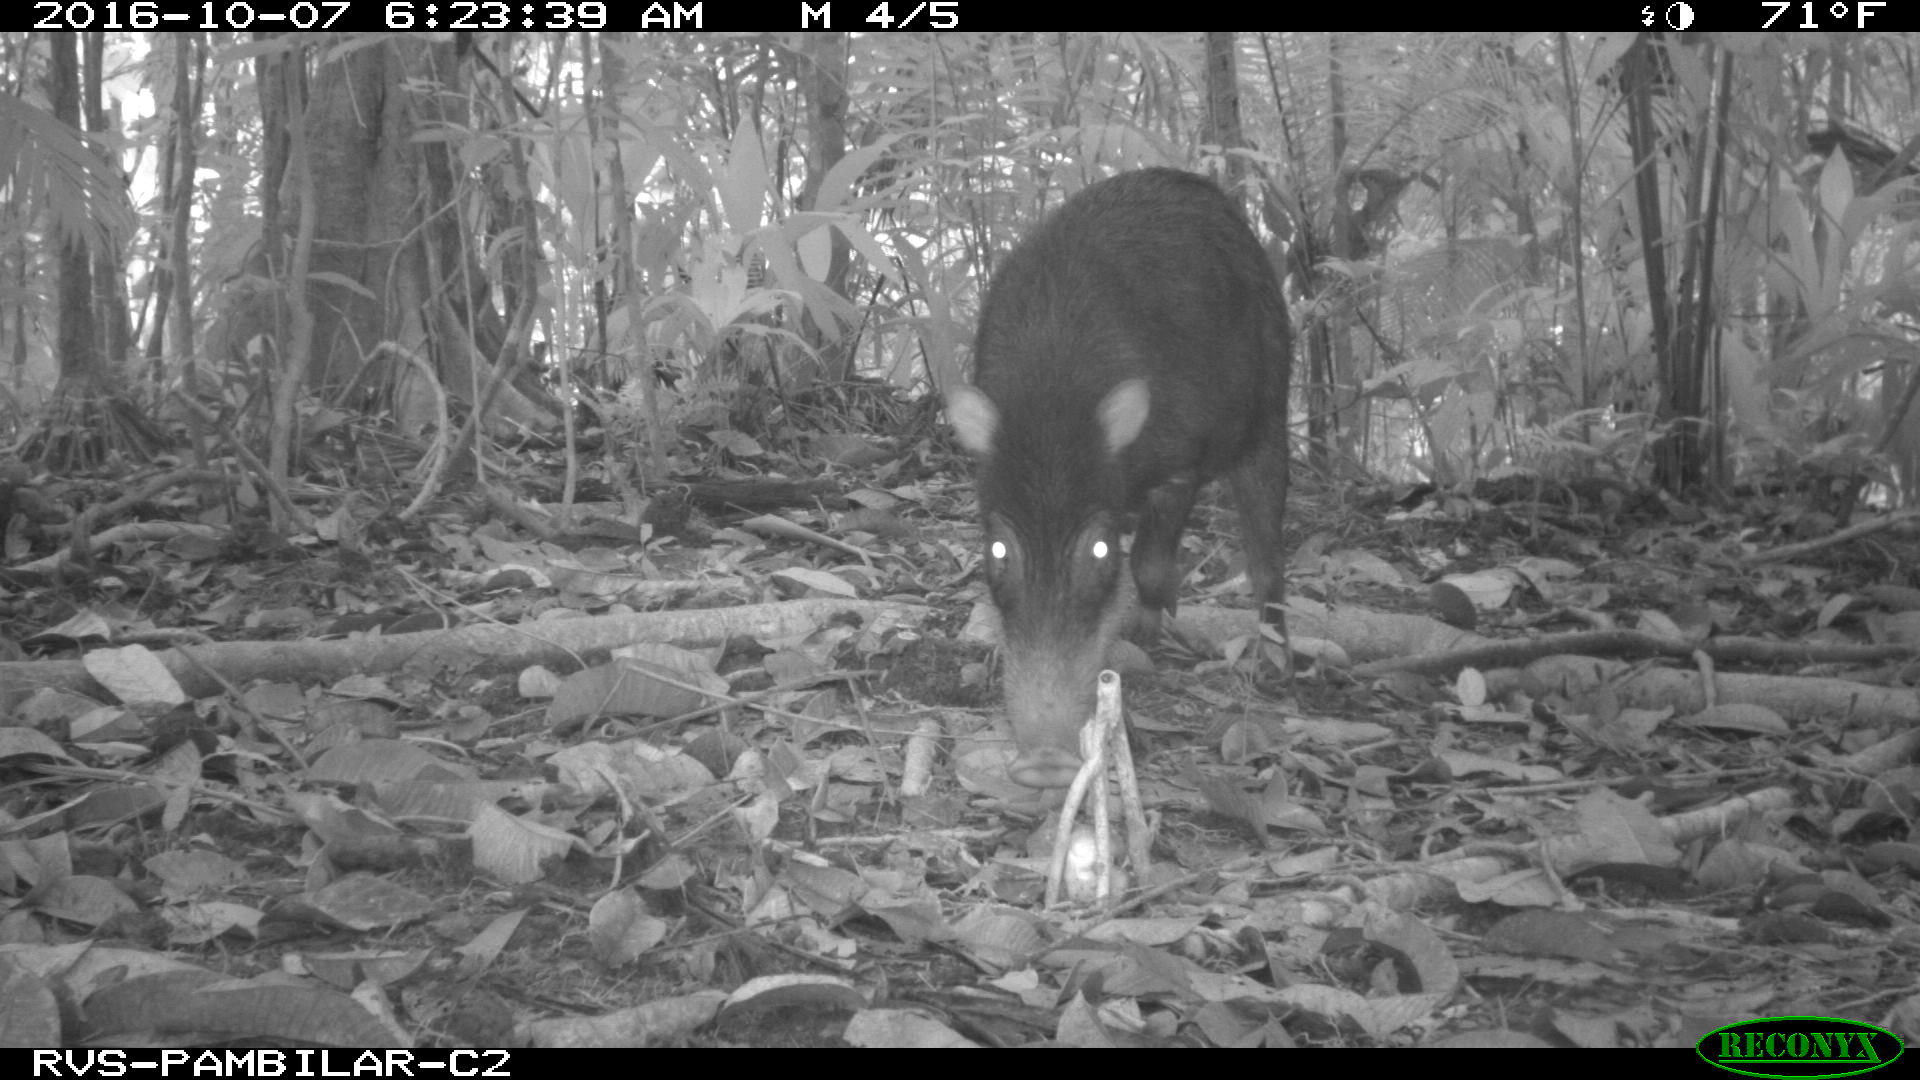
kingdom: Animalia
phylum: Chordata
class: Mammalia
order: Artiodactyla
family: Tayassuidae
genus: Tayassu
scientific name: Tayassu pecari
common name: White-lipped peccary
